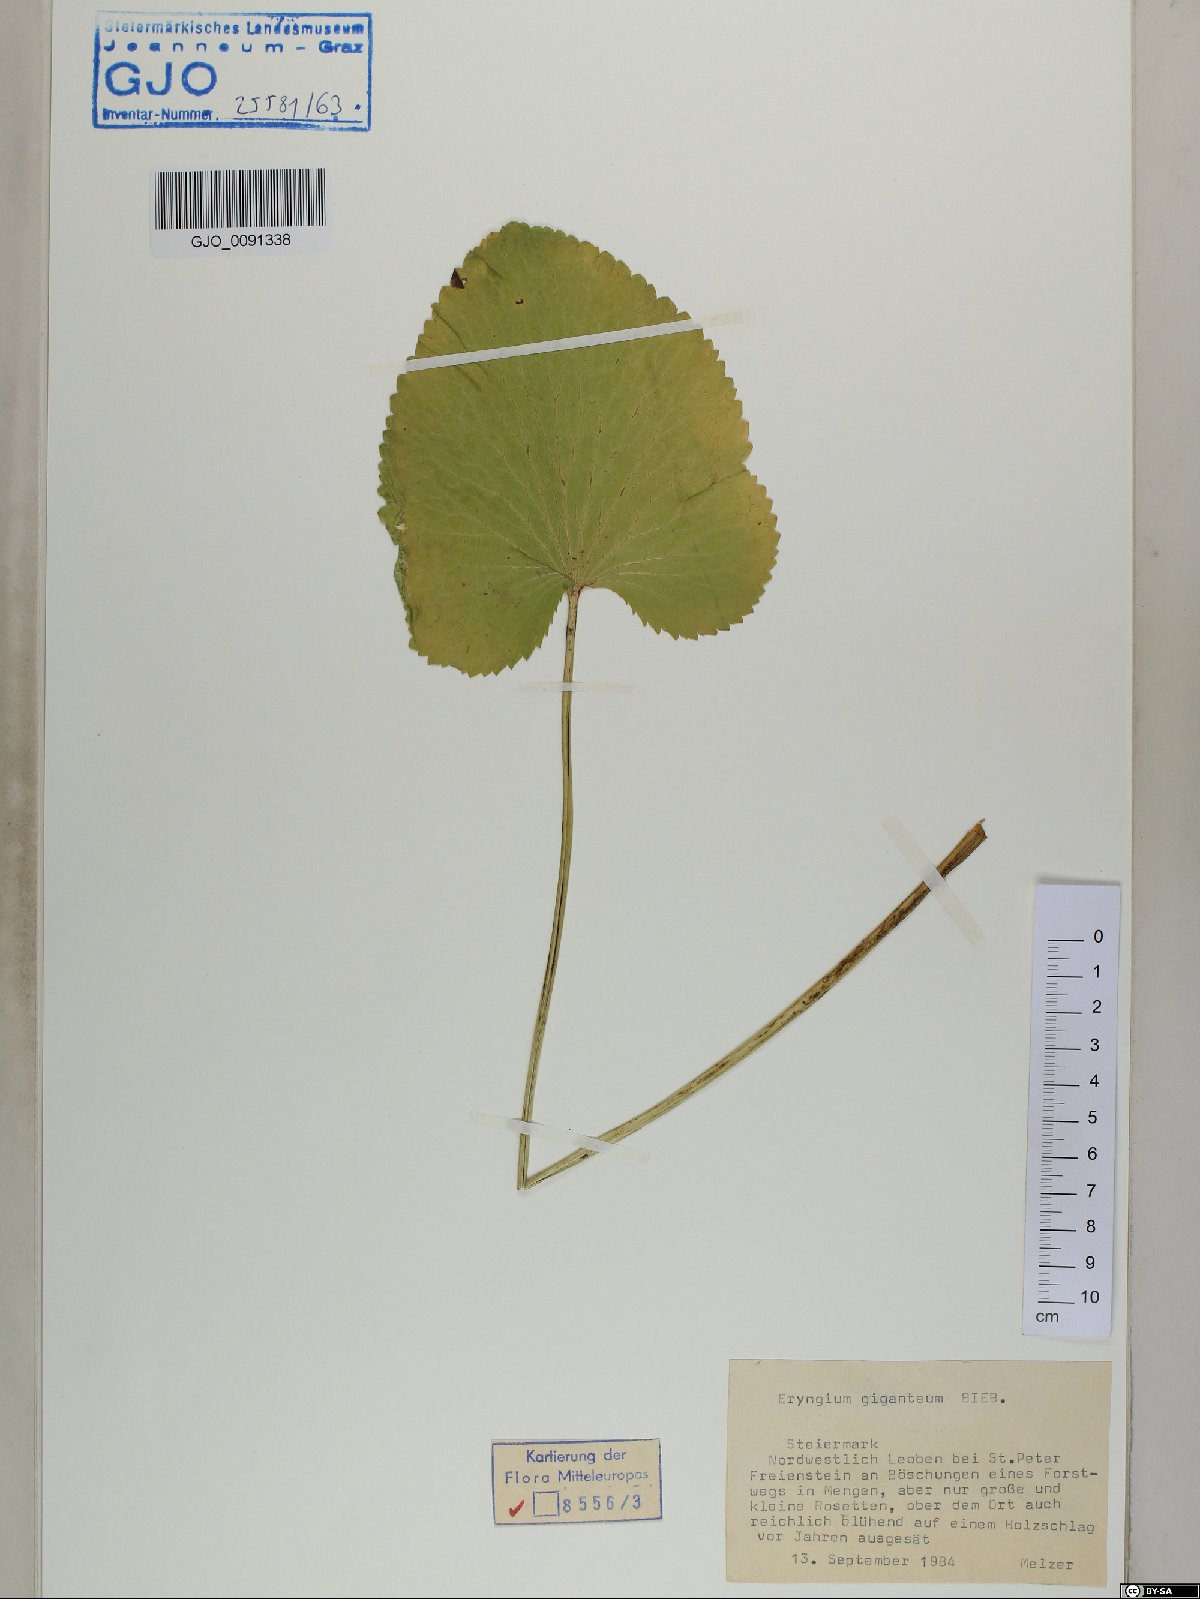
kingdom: Plantae
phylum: Tracheophyta
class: Magnoliopsida
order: Apiales
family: Apiaceae
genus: Eryngium
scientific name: Eryngium giganteum
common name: Tall eryngo
